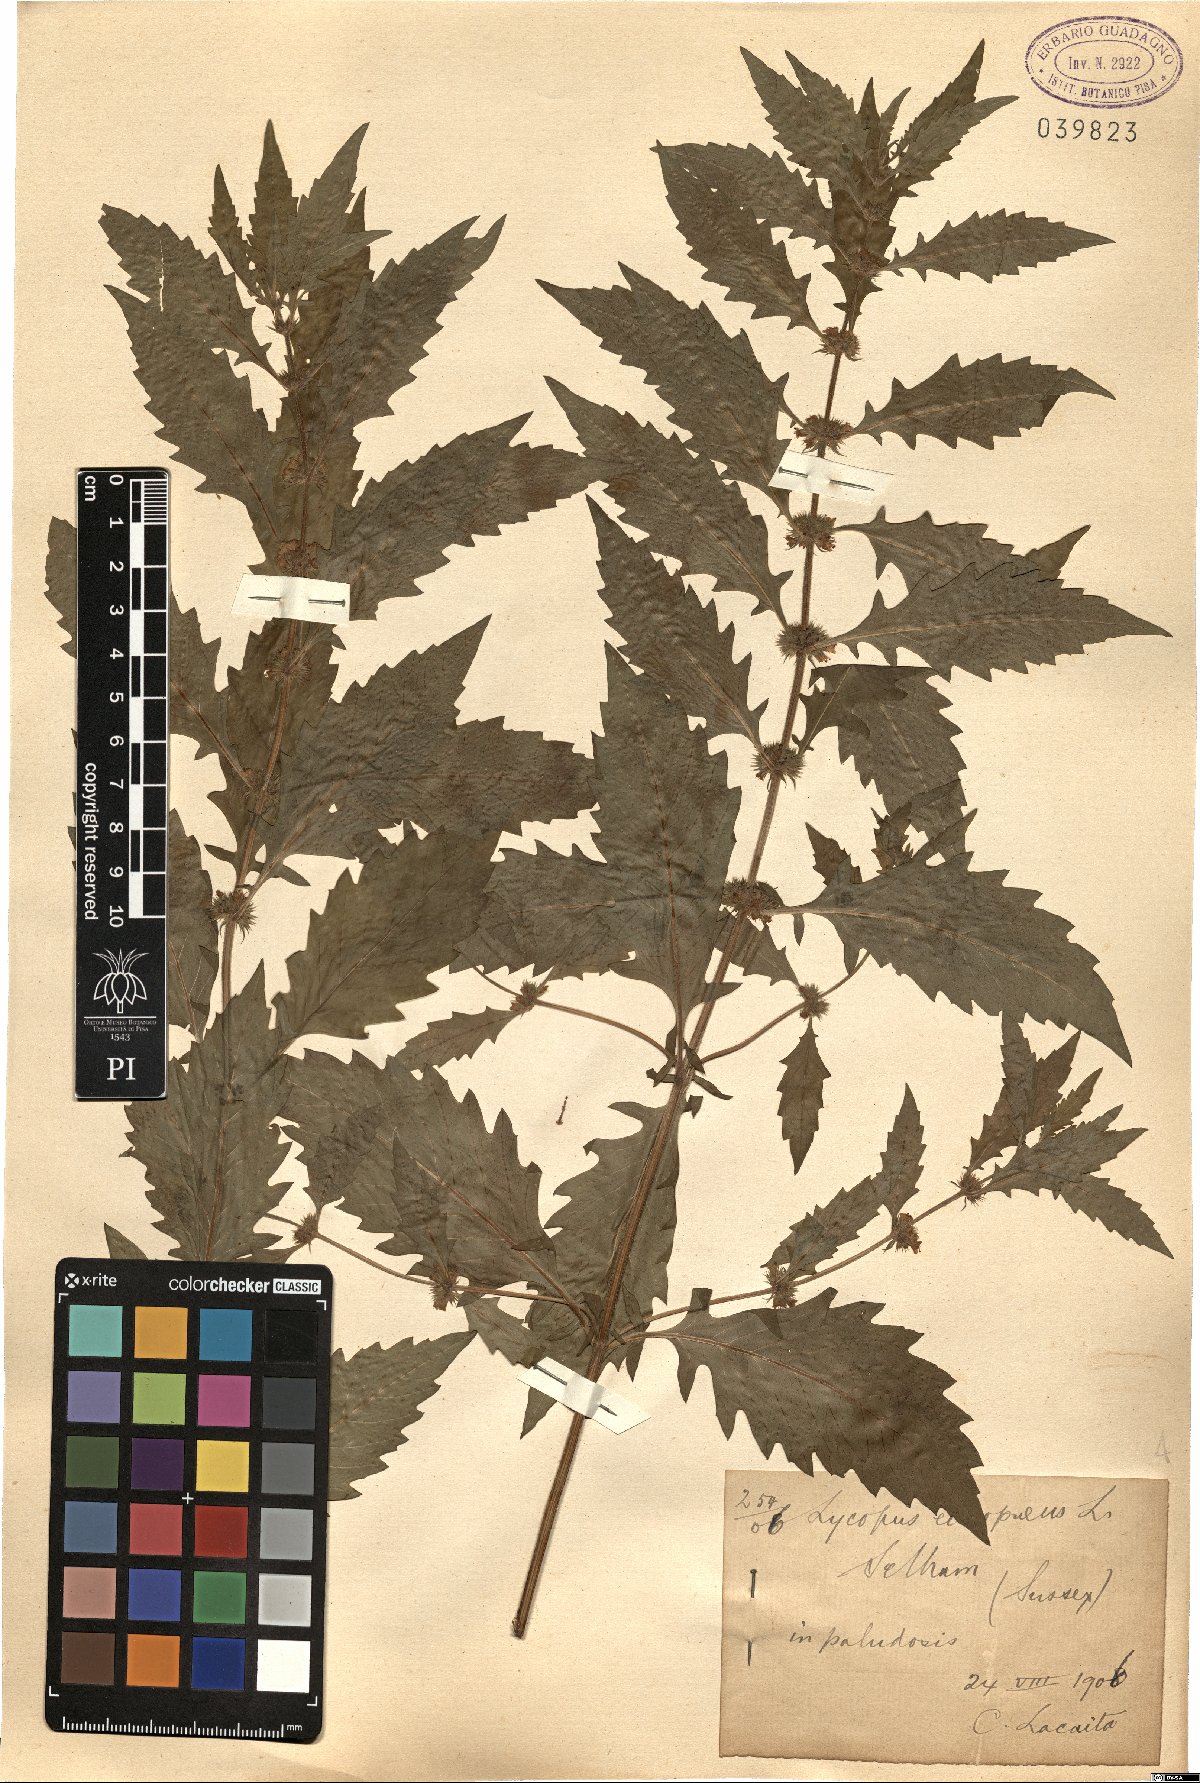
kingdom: Plantae
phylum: Tracheophyta
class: Magnoliopsida
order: Lamiales
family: Lamiaceae
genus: Lycopus
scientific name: Lycopus europaeus
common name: European bugleweed
